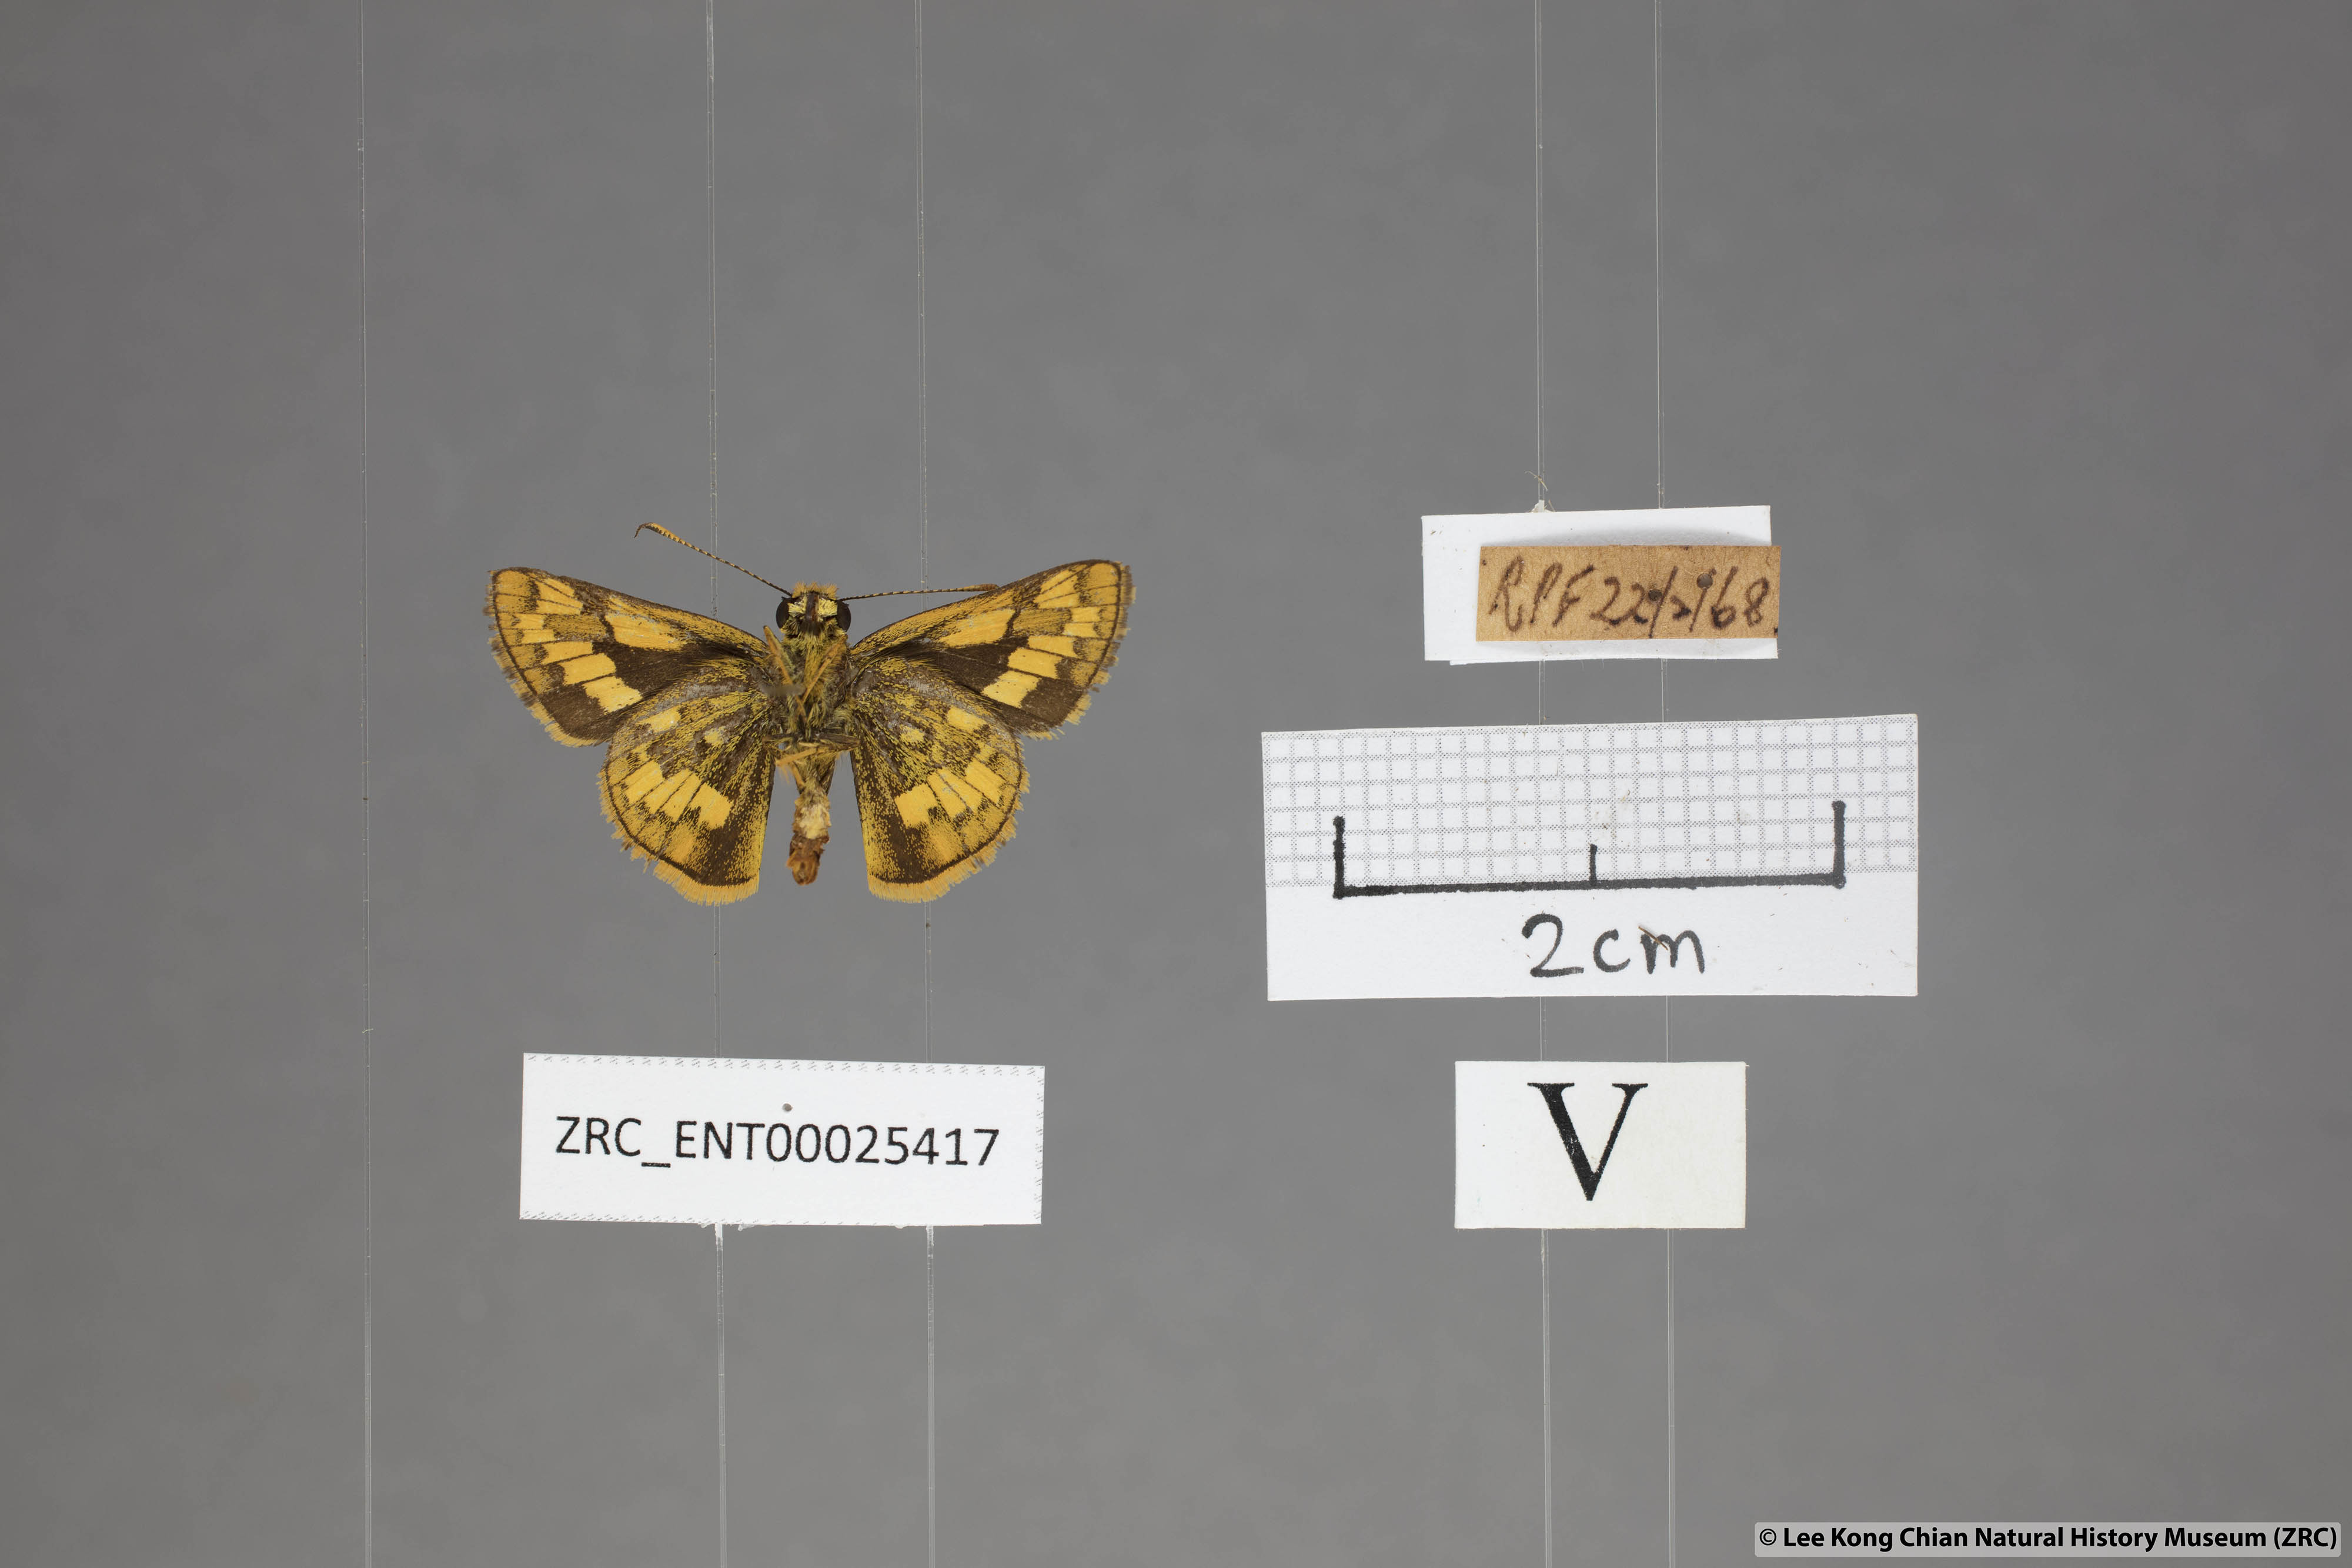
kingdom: Animalia
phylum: Arthropoda
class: Insecta
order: Lepidoptera
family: Hesperiidae
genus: Potanthus
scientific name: Potanthus omaha
